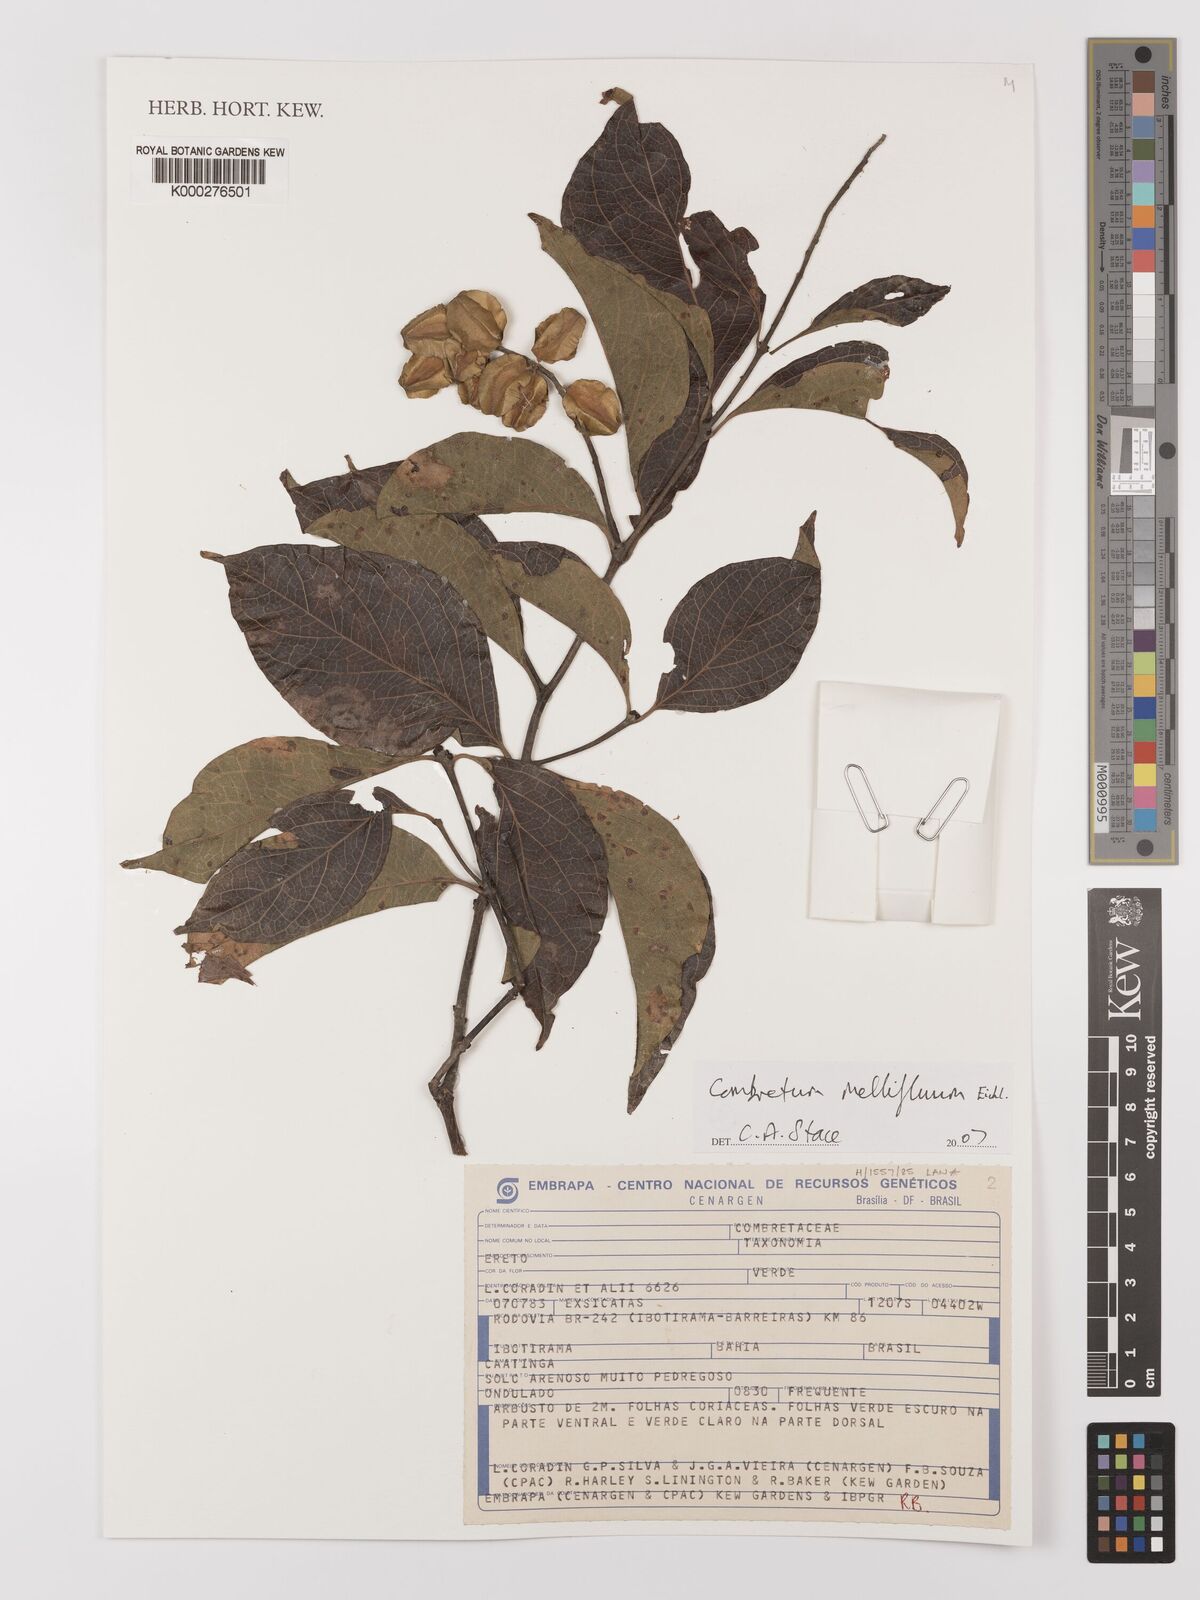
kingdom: Plantae
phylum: Tracheophyta
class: Magnoliopsida
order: Myrtales
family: Combretaceae
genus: Combretum
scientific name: Combretum mellifluum
